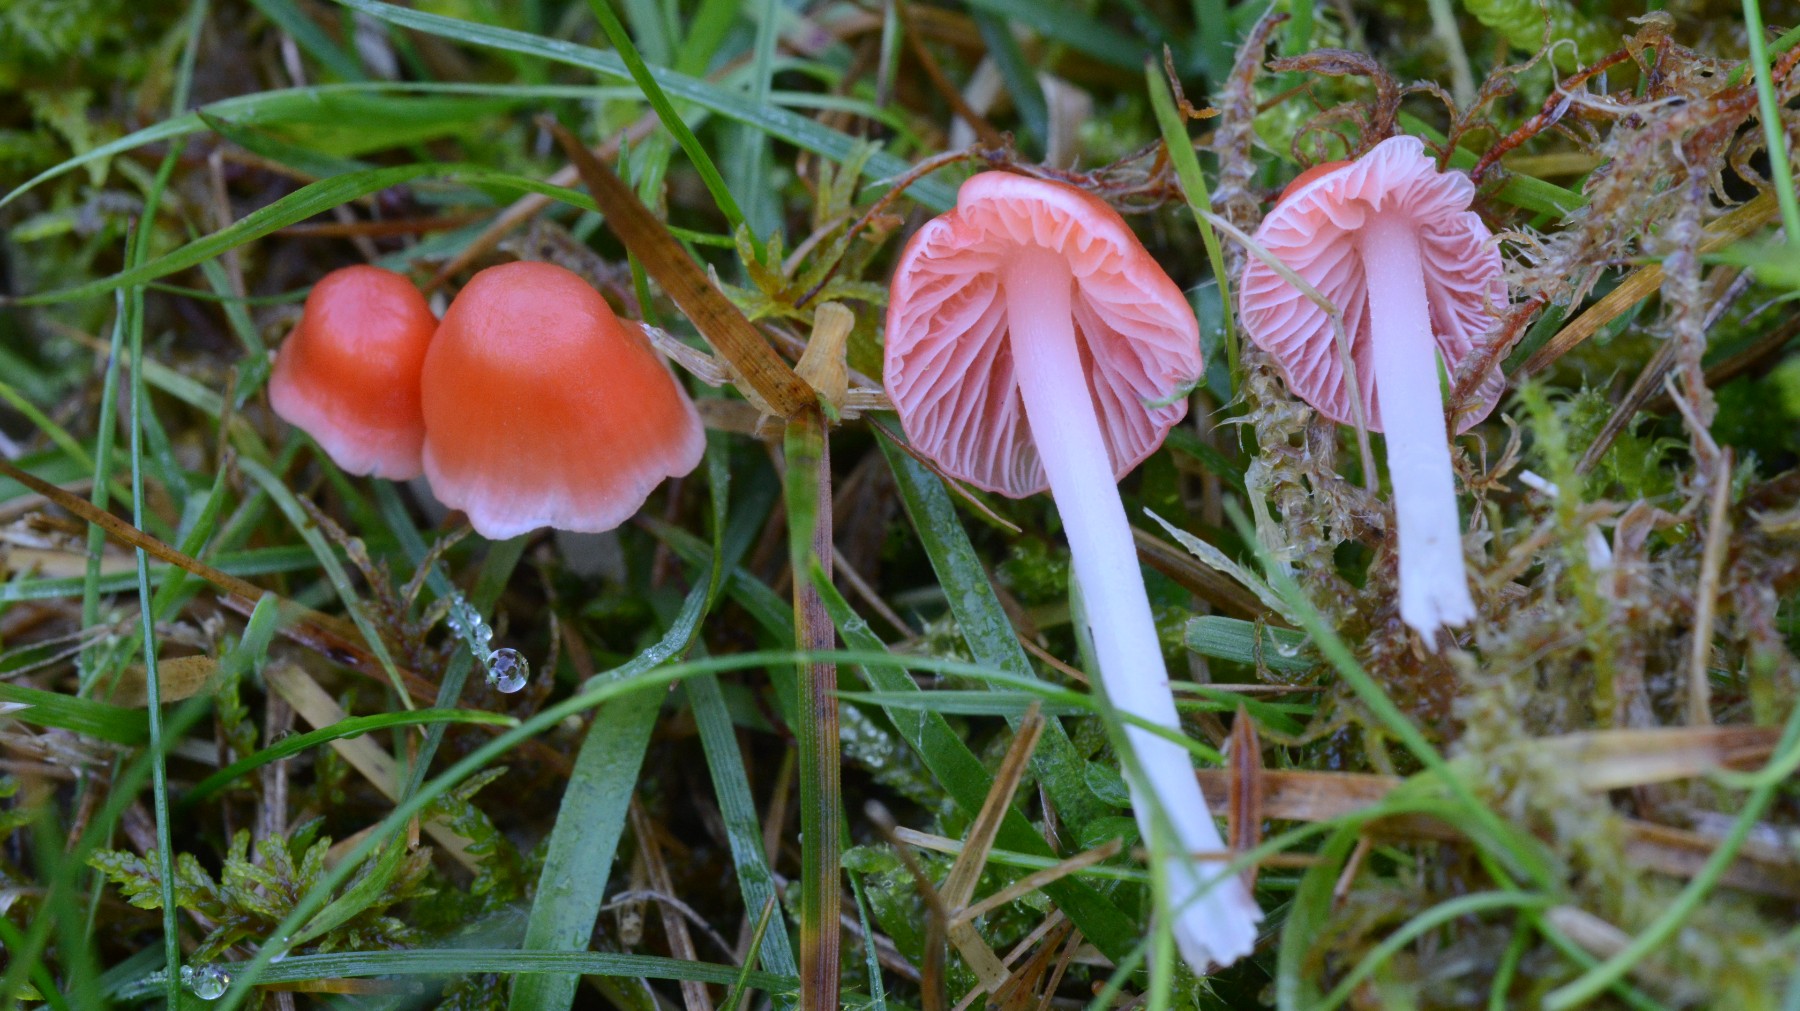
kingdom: Fungi
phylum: Basidiomycota
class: Agaricomycetes
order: Agaricales
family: Mycenaceae
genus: Atheniella
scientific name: Atheniella adonis
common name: rønnerød huesvamp
